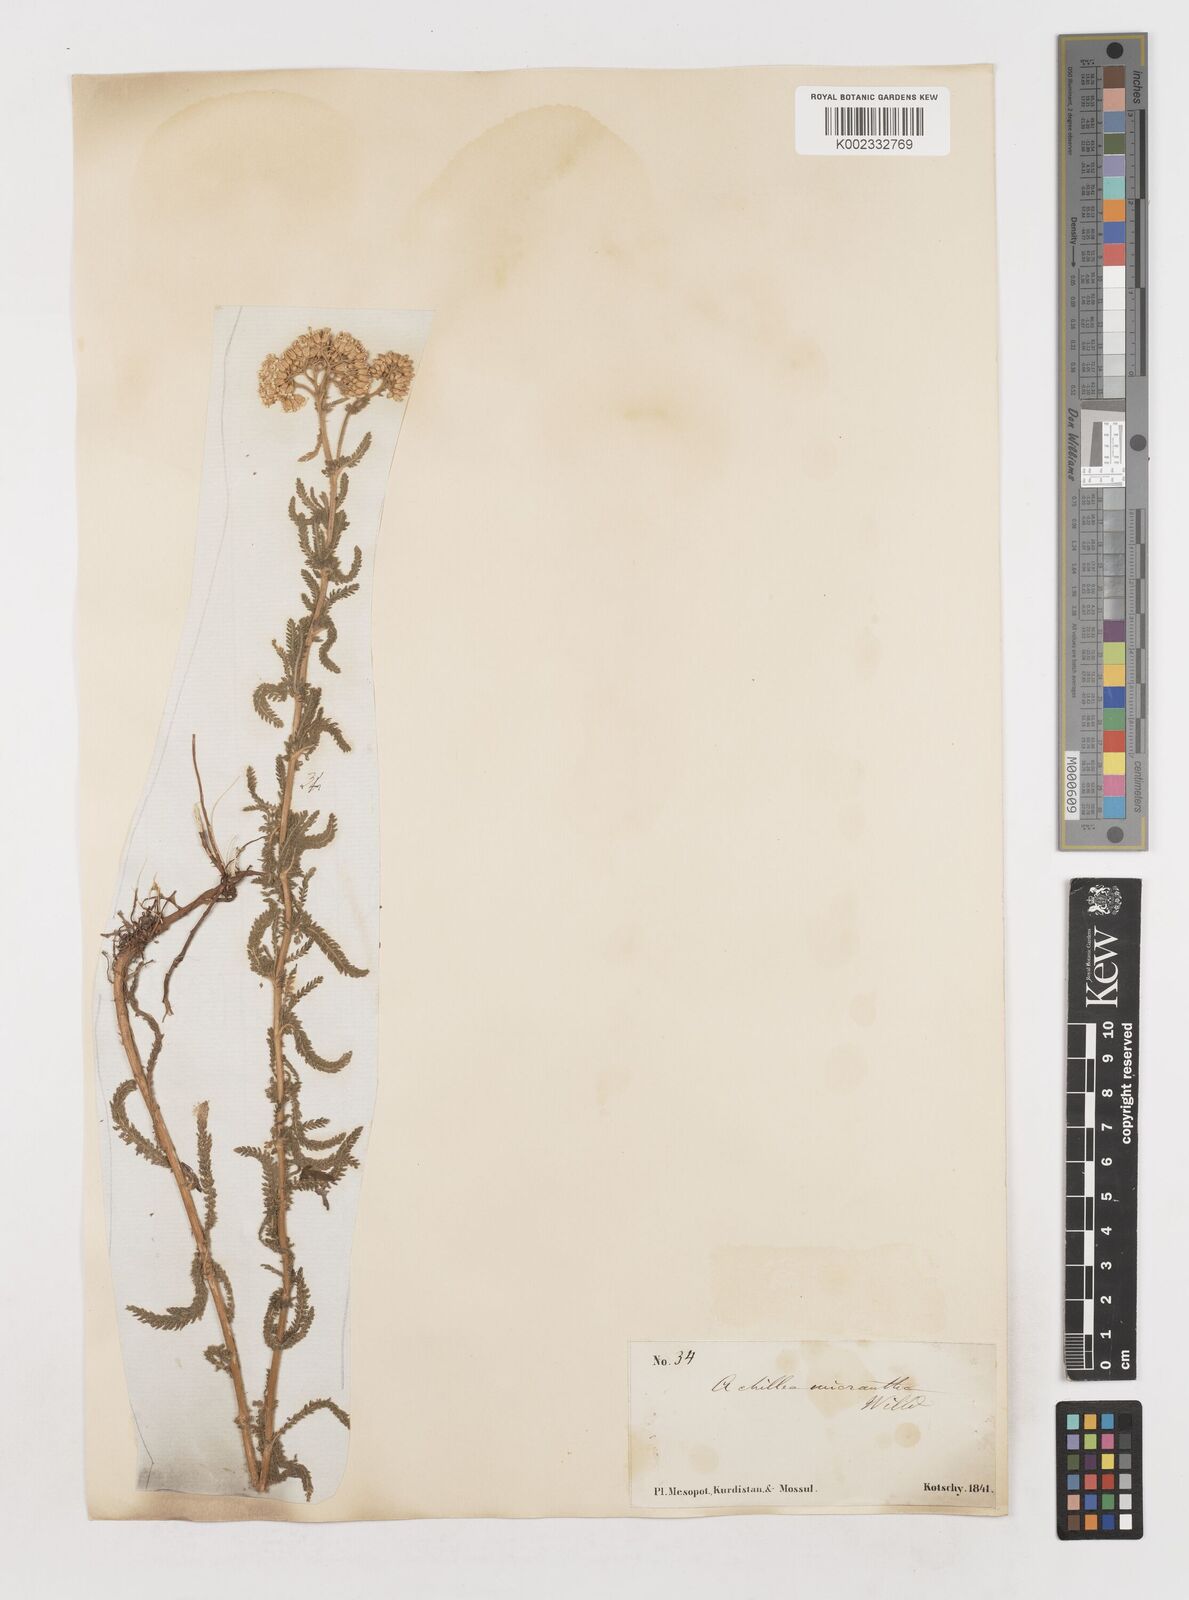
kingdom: Plantae
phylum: Tracheophyta
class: Magnoliopsida
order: Asterales
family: Asteraceae
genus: Achillea
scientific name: Achillea micrantha
